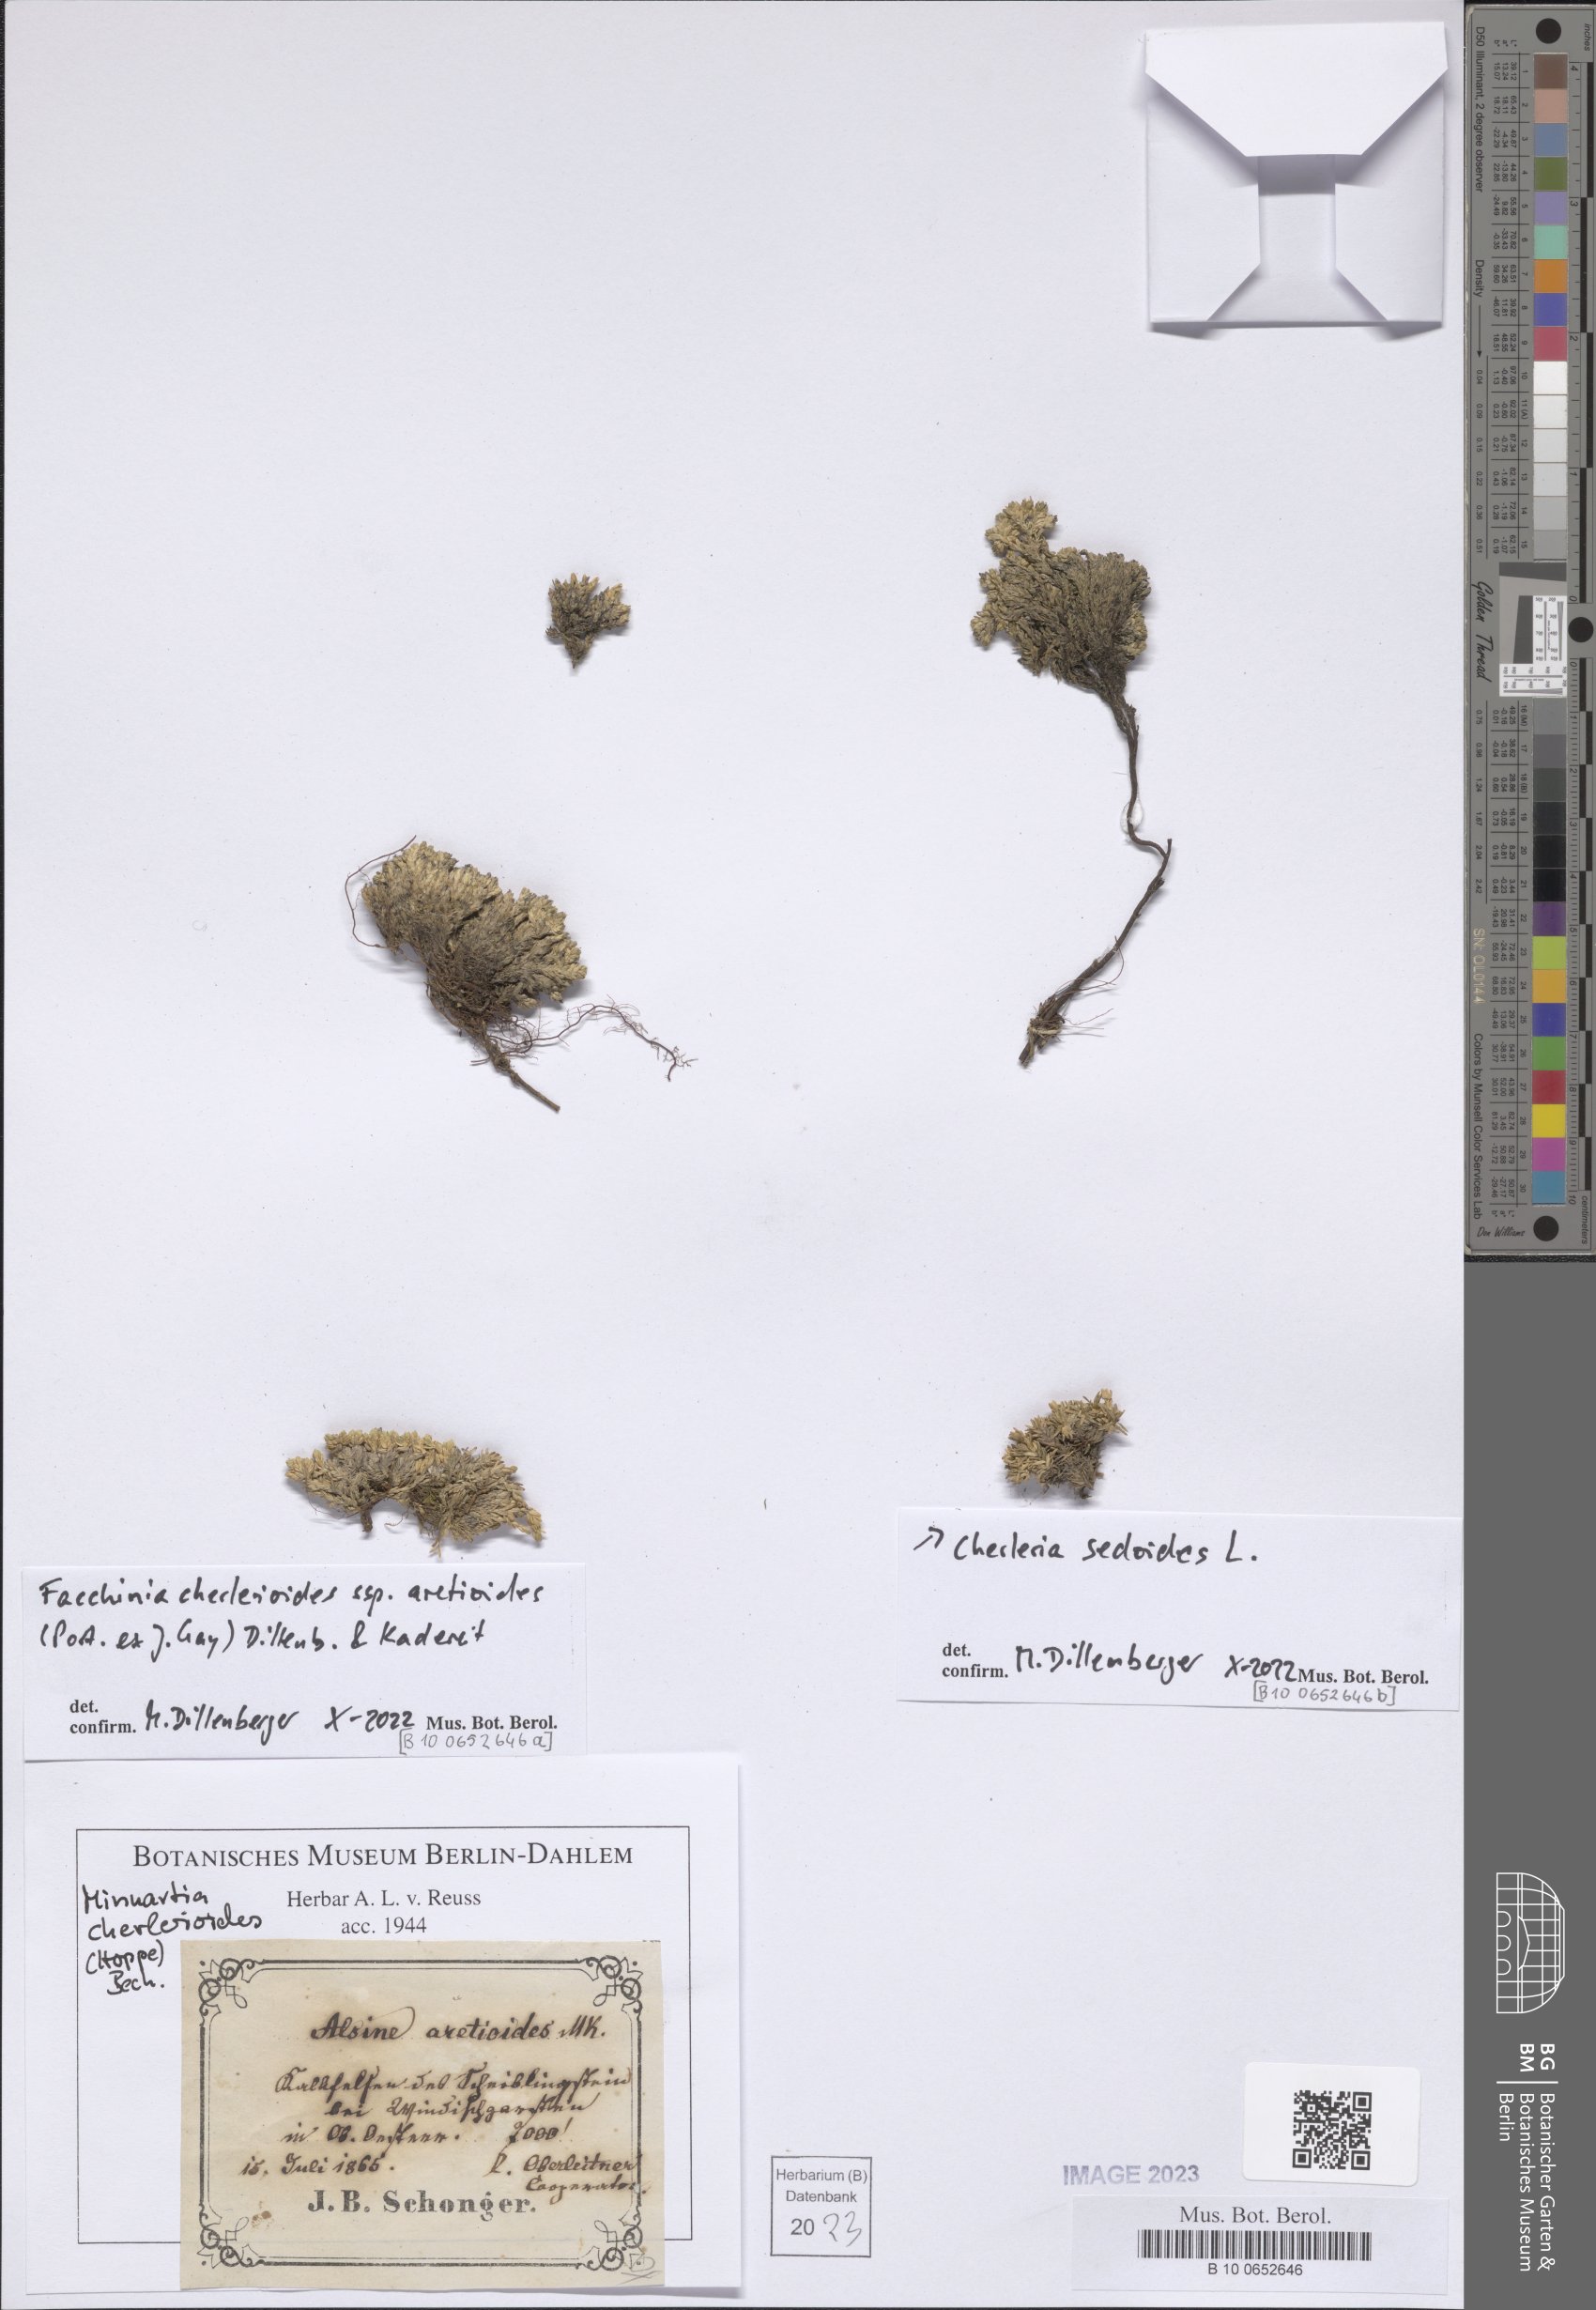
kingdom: Plantae
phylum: Tracheophyta
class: Magnoliopsida
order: Caryophyllales
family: Caryophyllaceae
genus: Facchinia
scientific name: Facchinia cherlerioides
